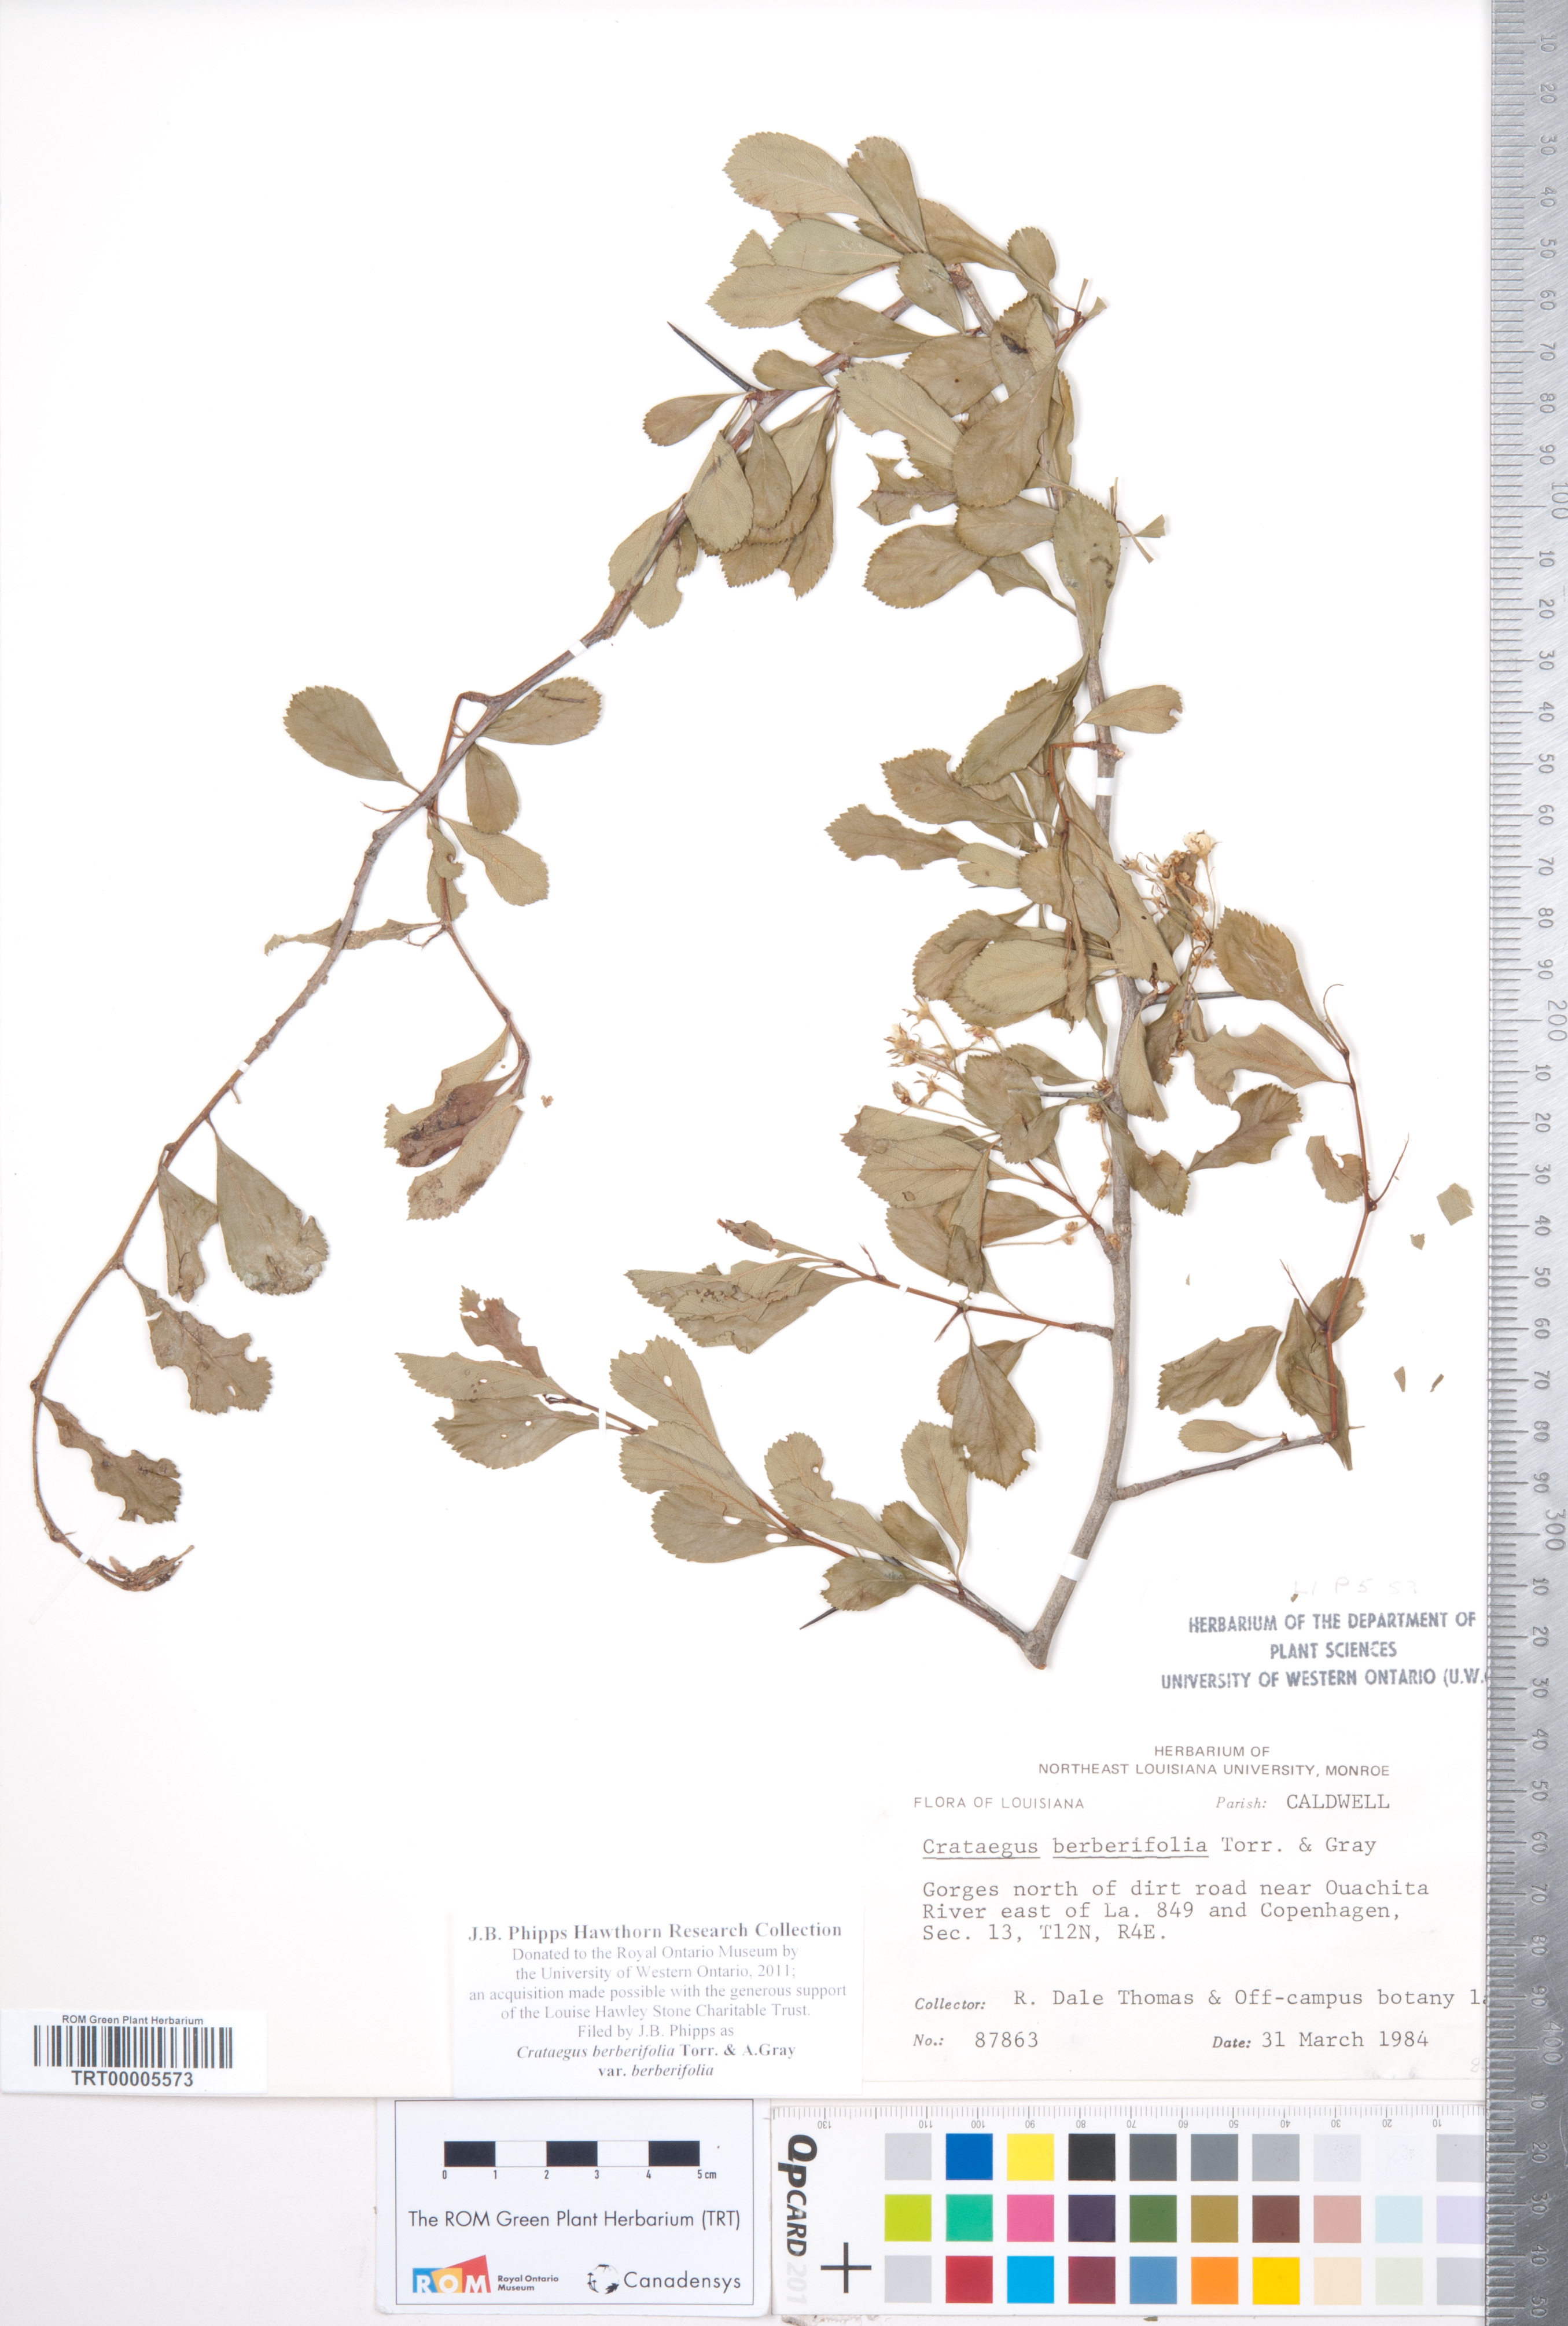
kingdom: Plantae
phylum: Tracheophyta
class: Magnoliopsida
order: Rosales
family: Rosaceae
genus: Crataegus
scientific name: Crataegus berberifolia
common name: Barberry hawthorn
